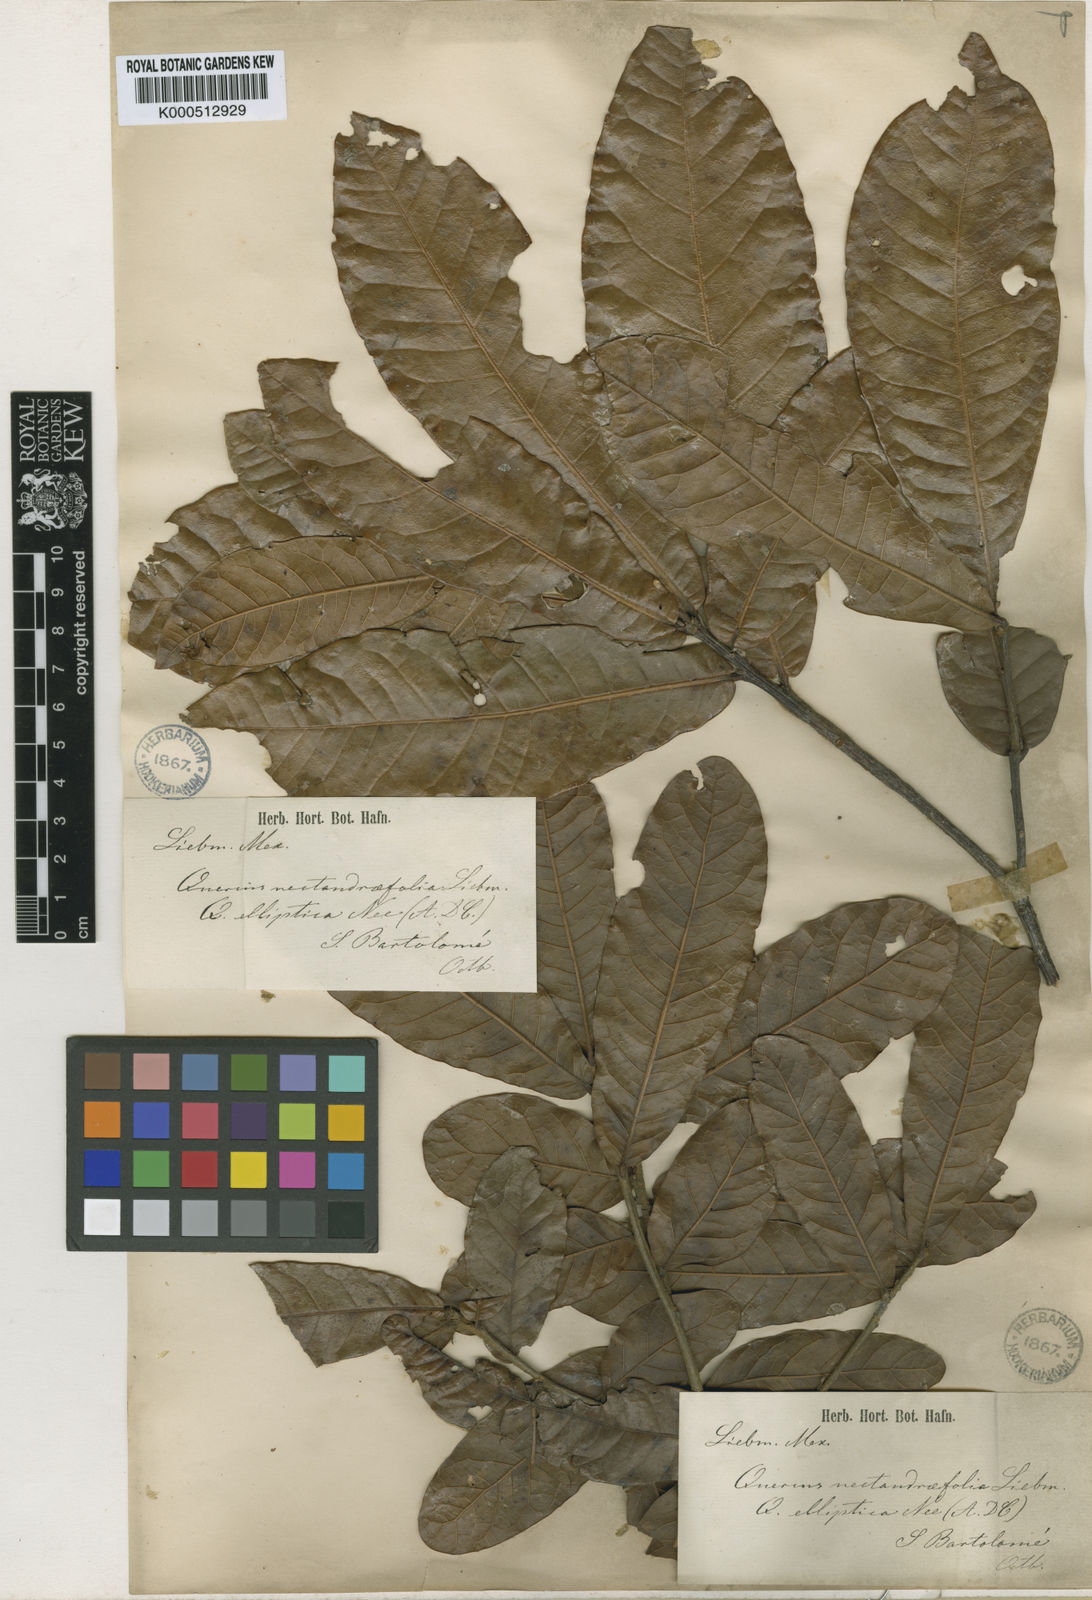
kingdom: Plantae
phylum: Tracheophyta
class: Magnoliopsida
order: Fagales
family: Fagaceae
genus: Quercus
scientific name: Quercus elliptica
